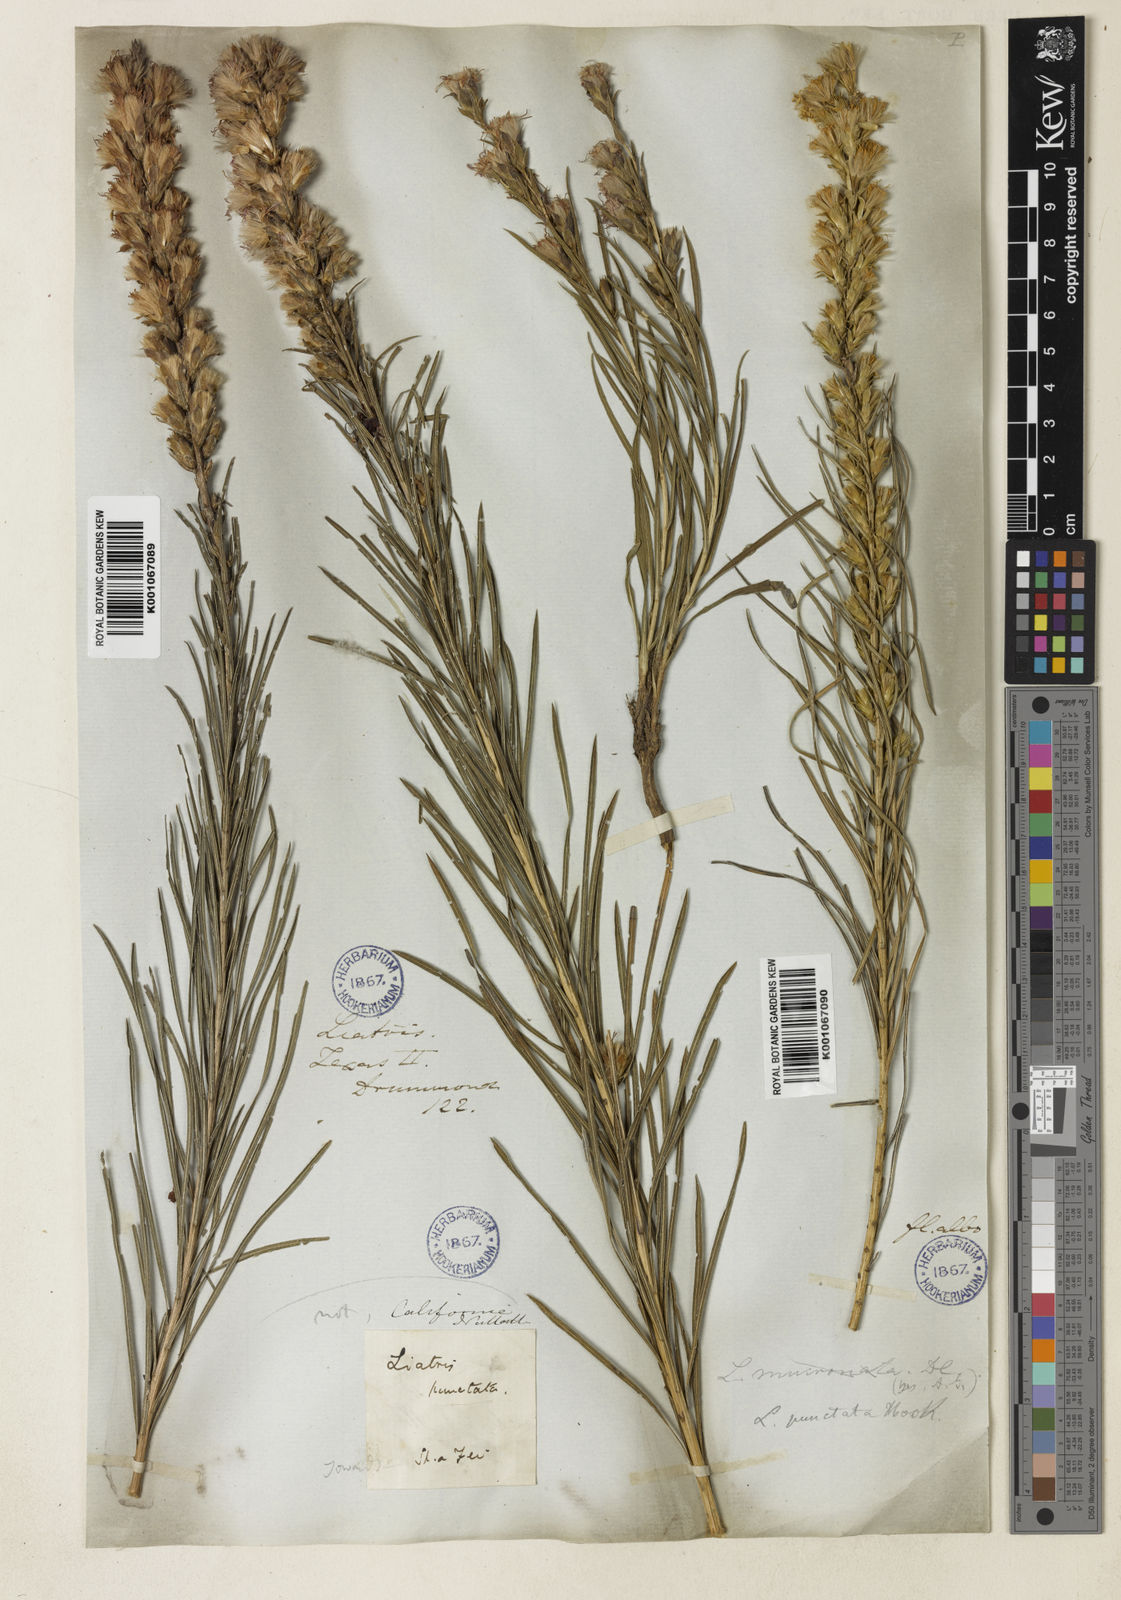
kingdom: Plantae
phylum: Tracheophyta
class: Magnoliopsida
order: Asterales
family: Asteraceae
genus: Liatris
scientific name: Liatris punctata
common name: Dotted gayfeather
